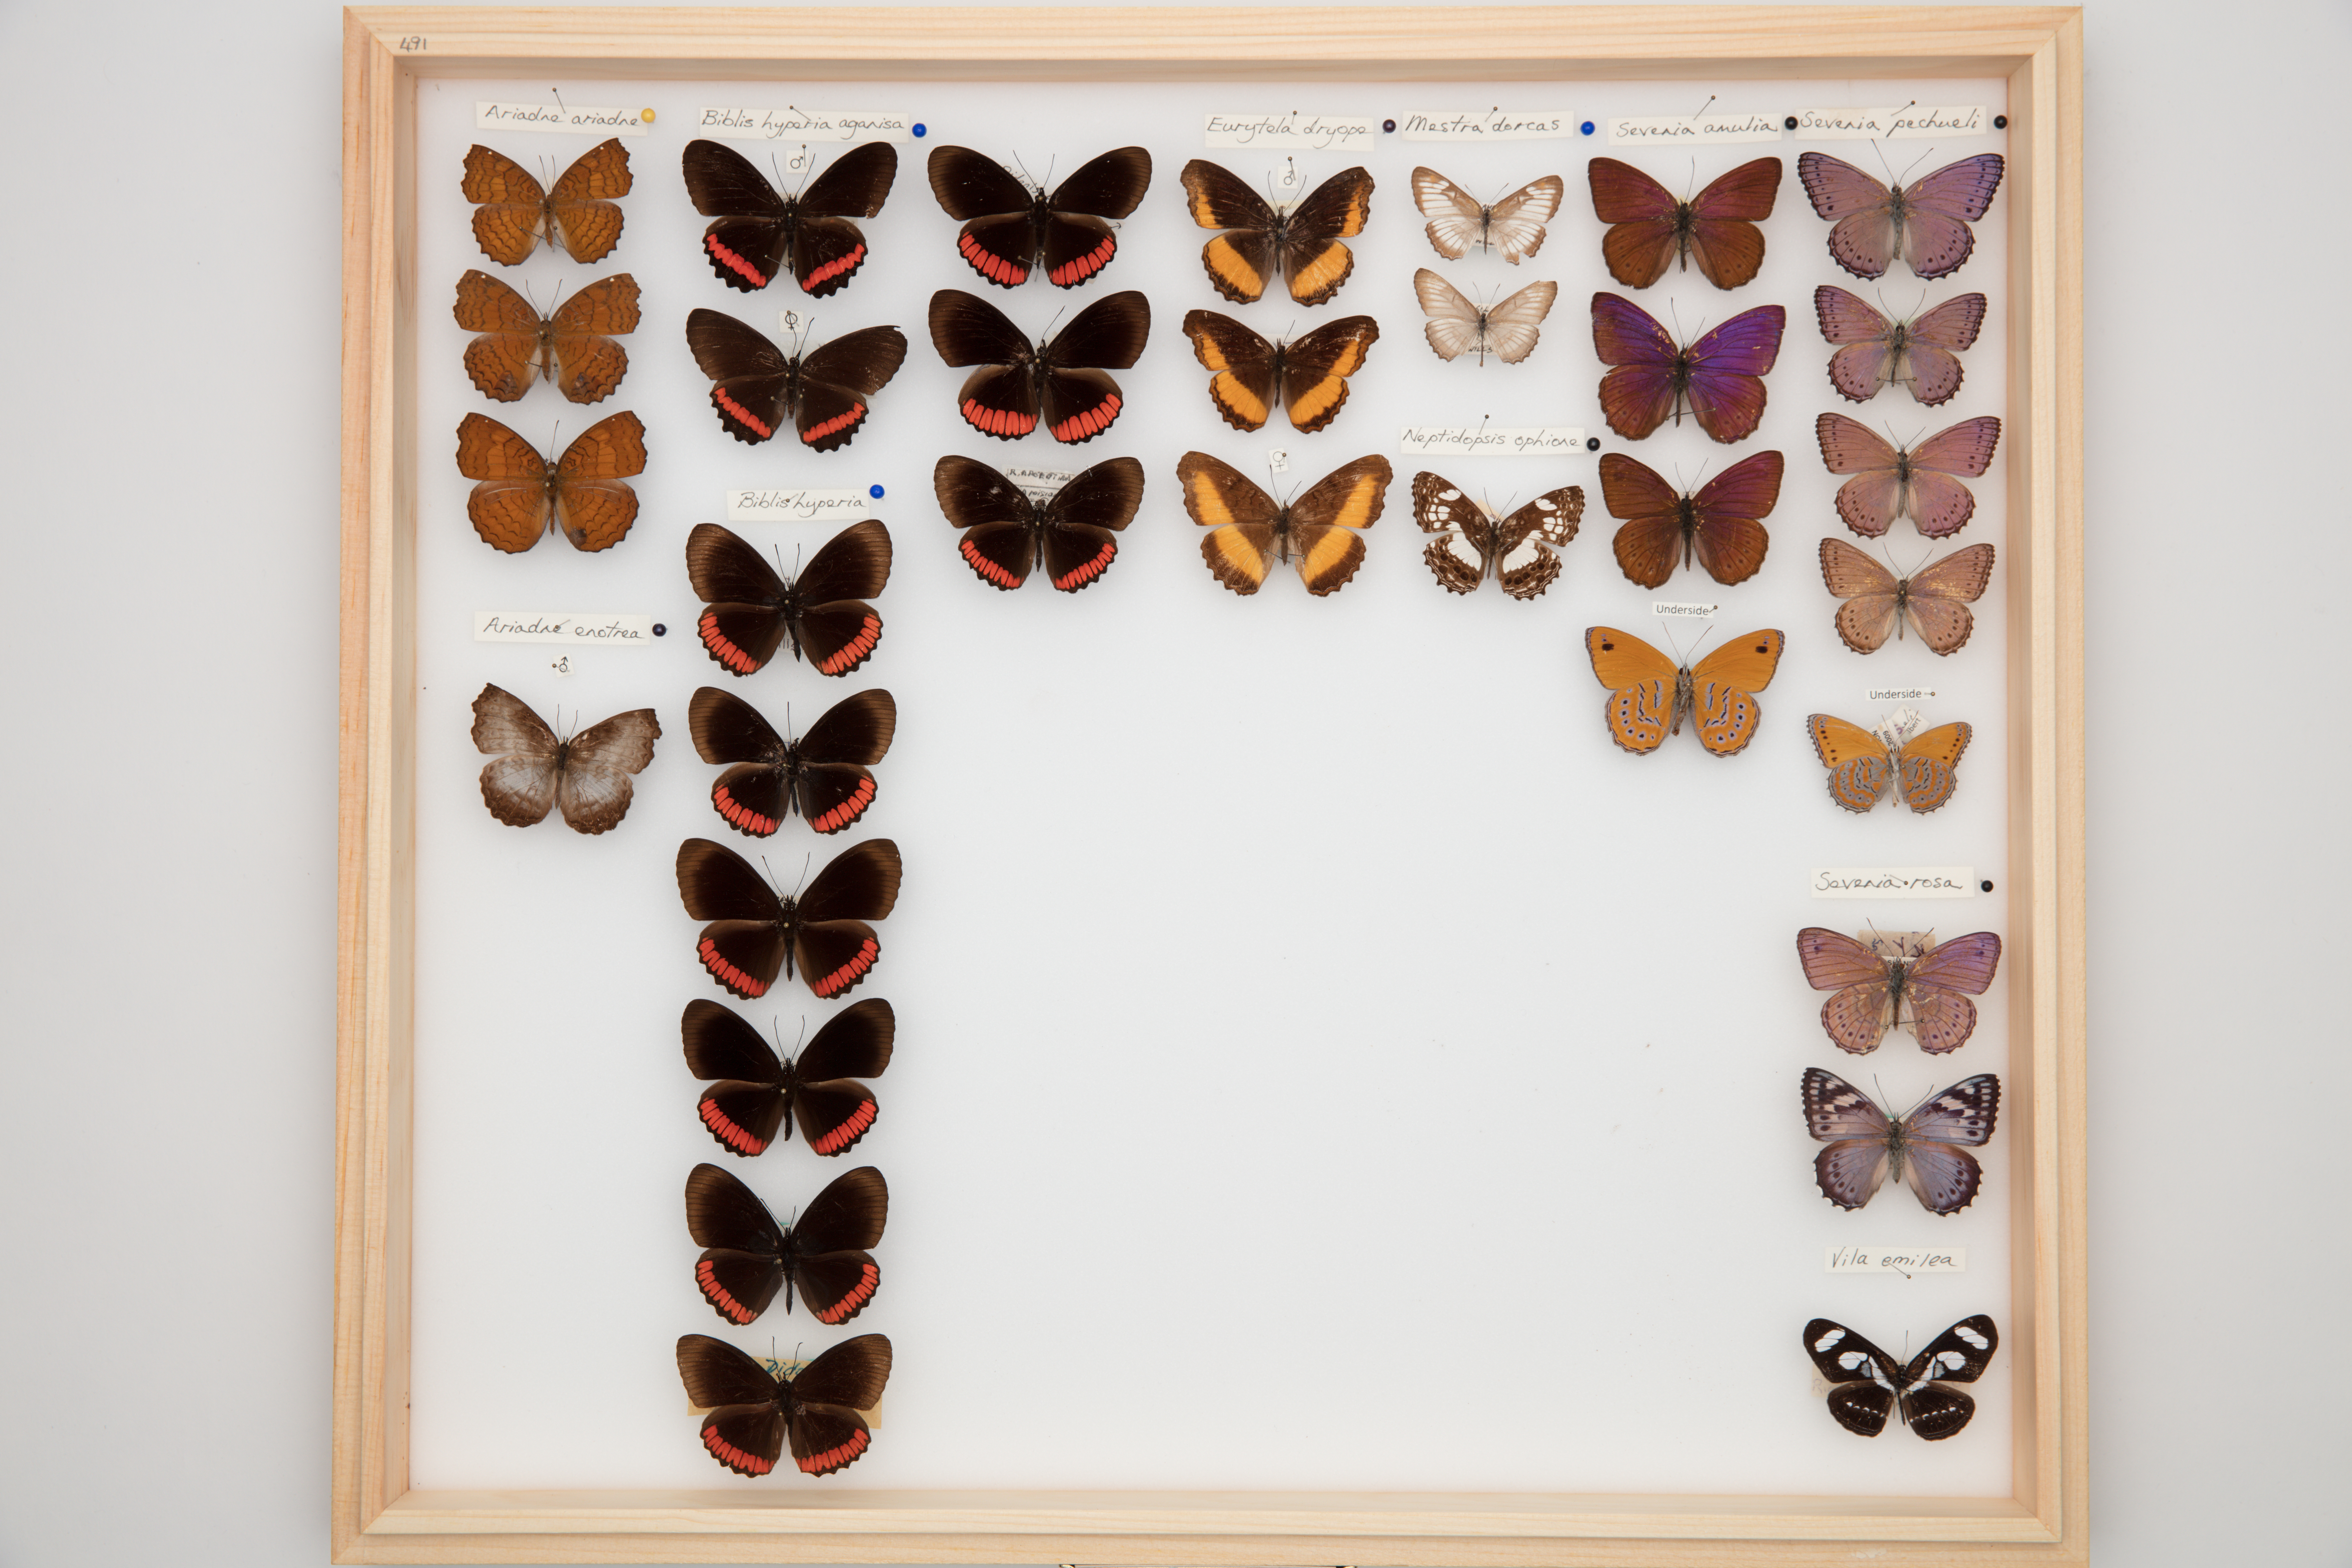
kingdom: Animalia
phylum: Arthropoda
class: Insecta
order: Lepidoptera
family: Nymphalidae
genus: Neptidopsis
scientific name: Neptidopsis ophione
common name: Scalloped false sailor
